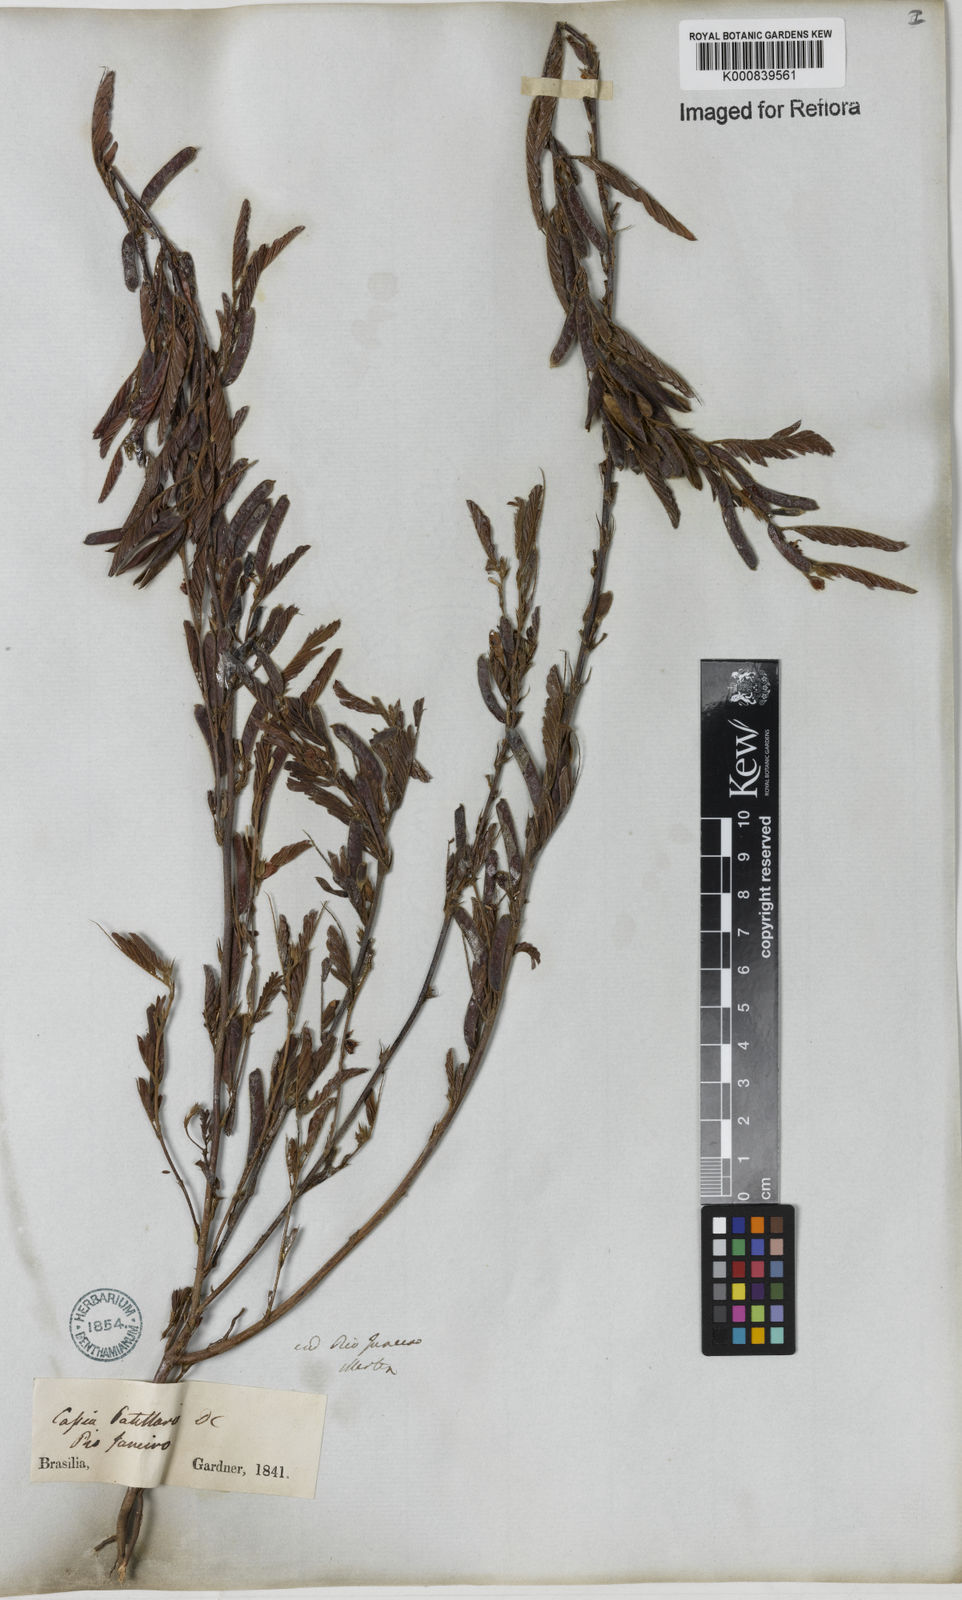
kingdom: Plantae
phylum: Tracheophyta
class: Magnoliopsida
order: Fabales
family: Fabaceae
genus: Chamaecrista
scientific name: Chamaecrista nictitans
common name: Sensitive cassia
